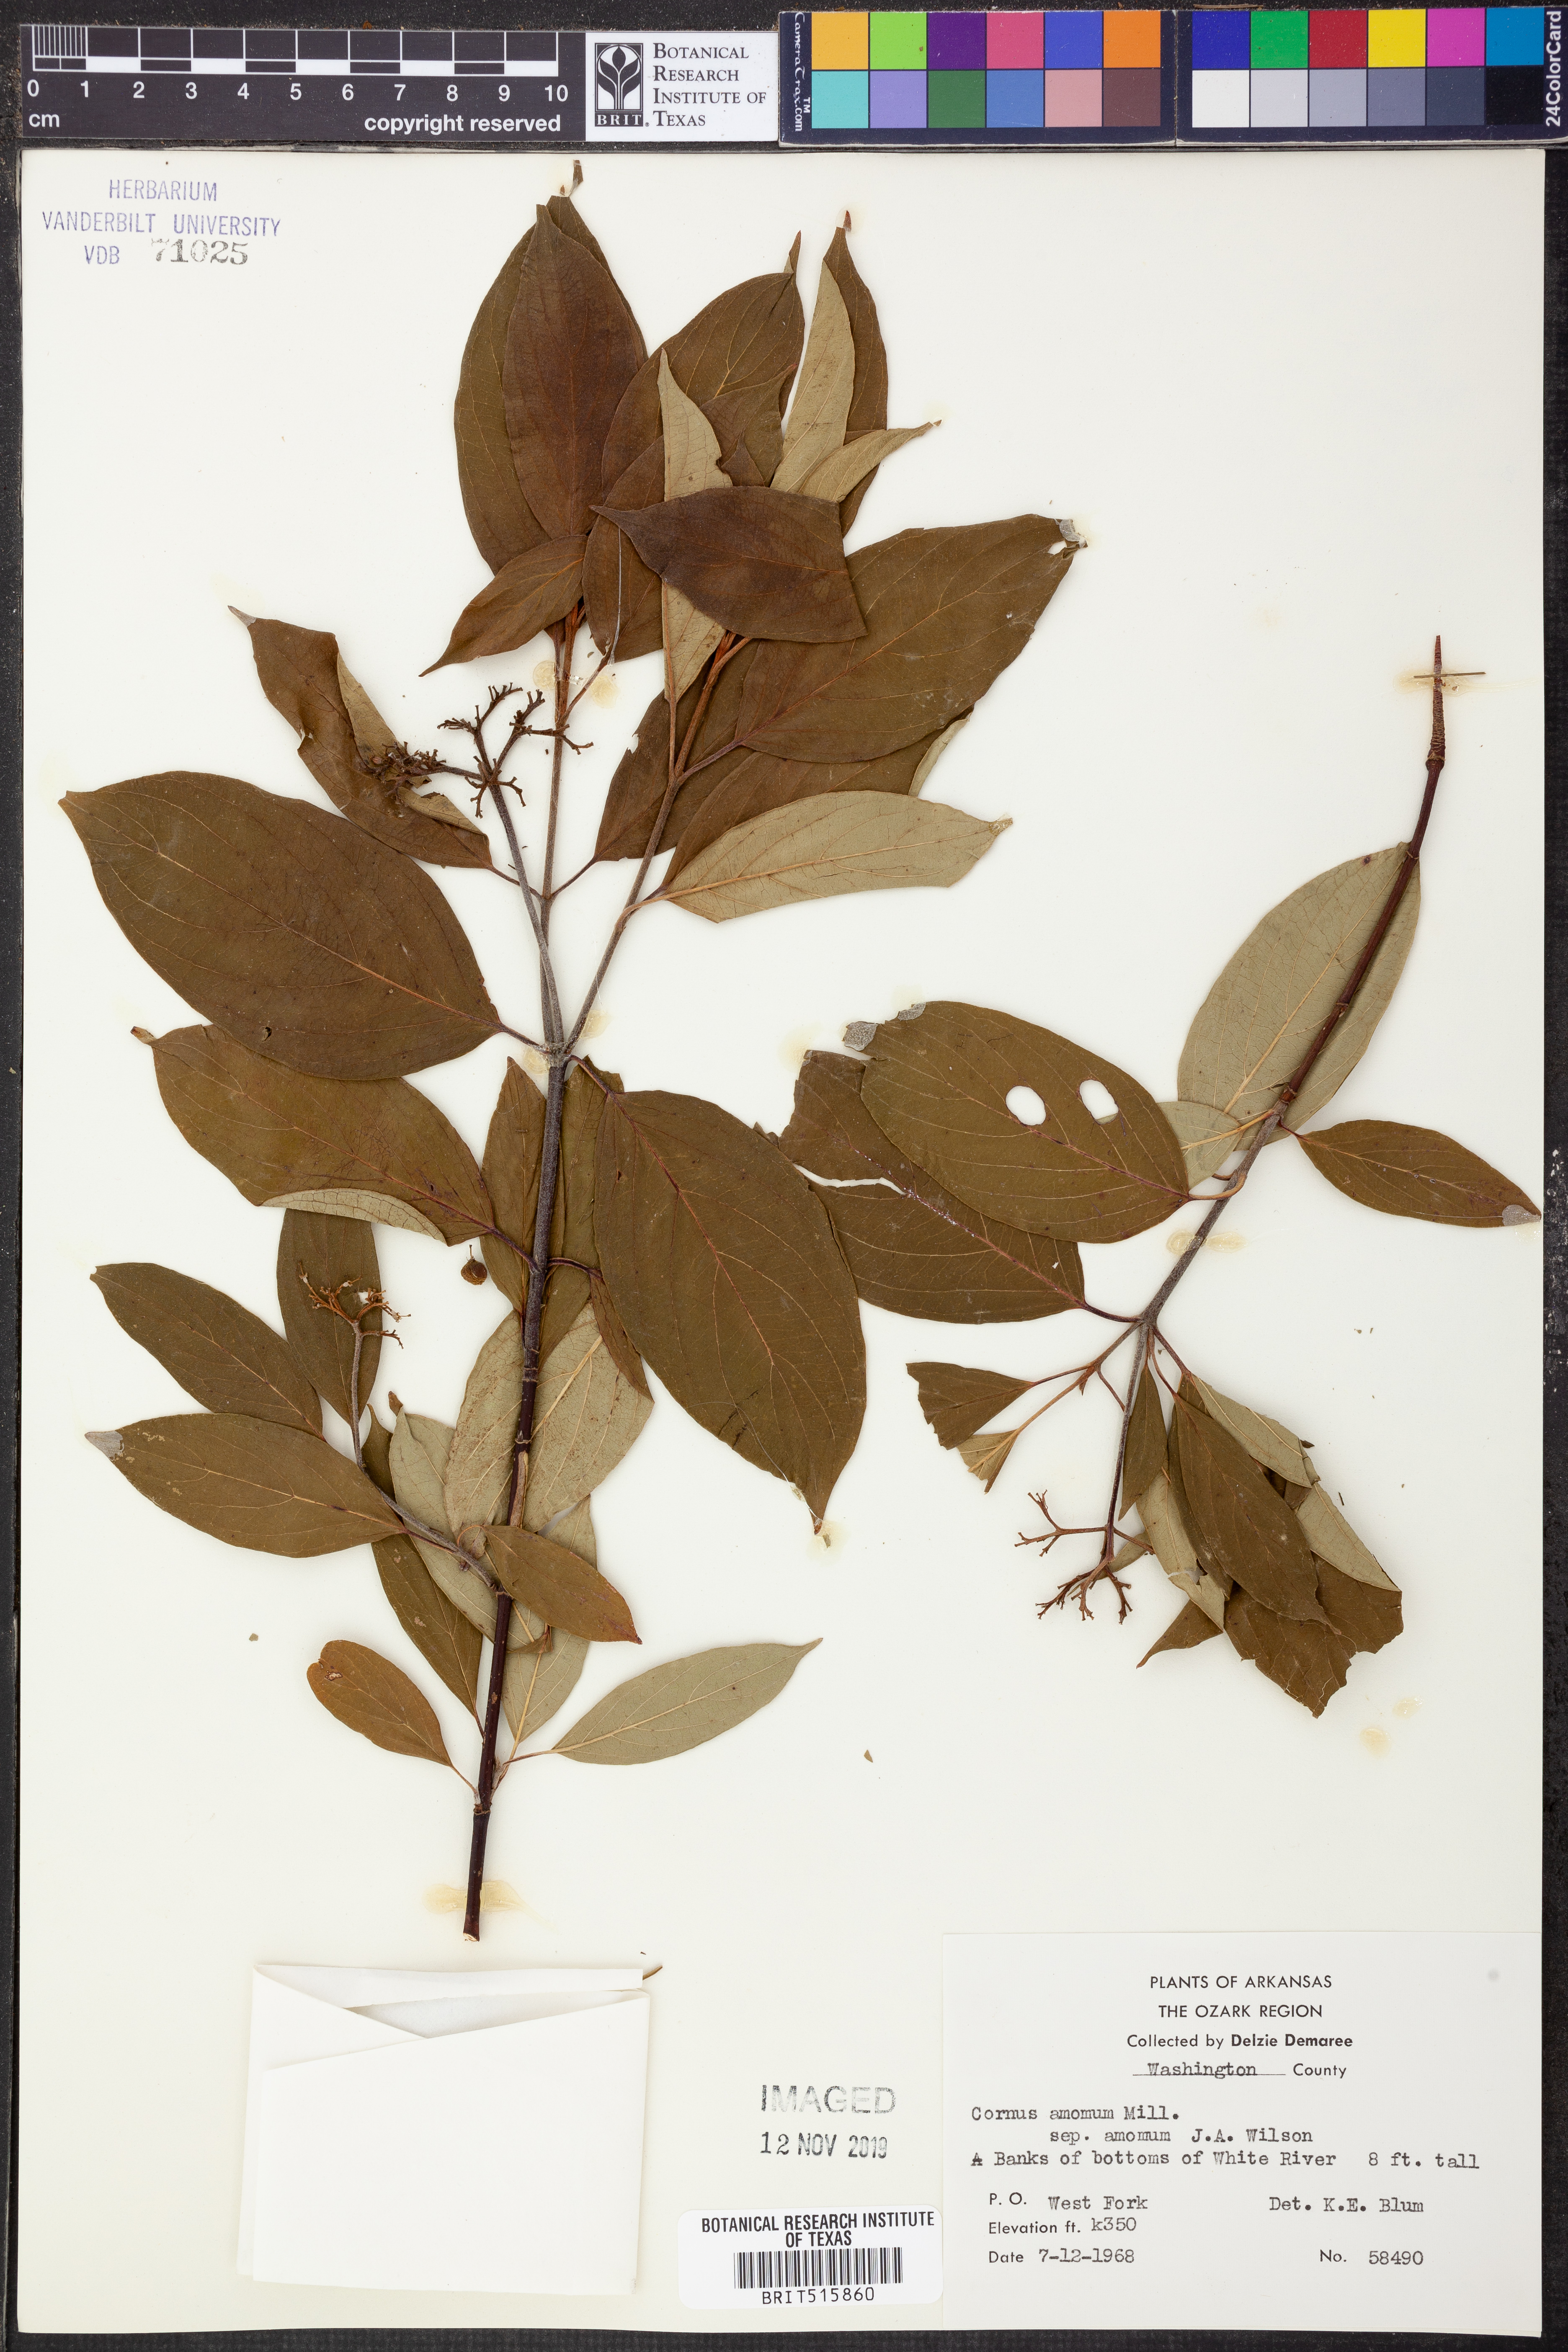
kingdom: Plantae
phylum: Tracheophyta
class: Magnoliopsida
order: Cornales
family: Cornaceae
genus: Cornus
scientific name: Cornus amomum
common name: Silky dogwood
